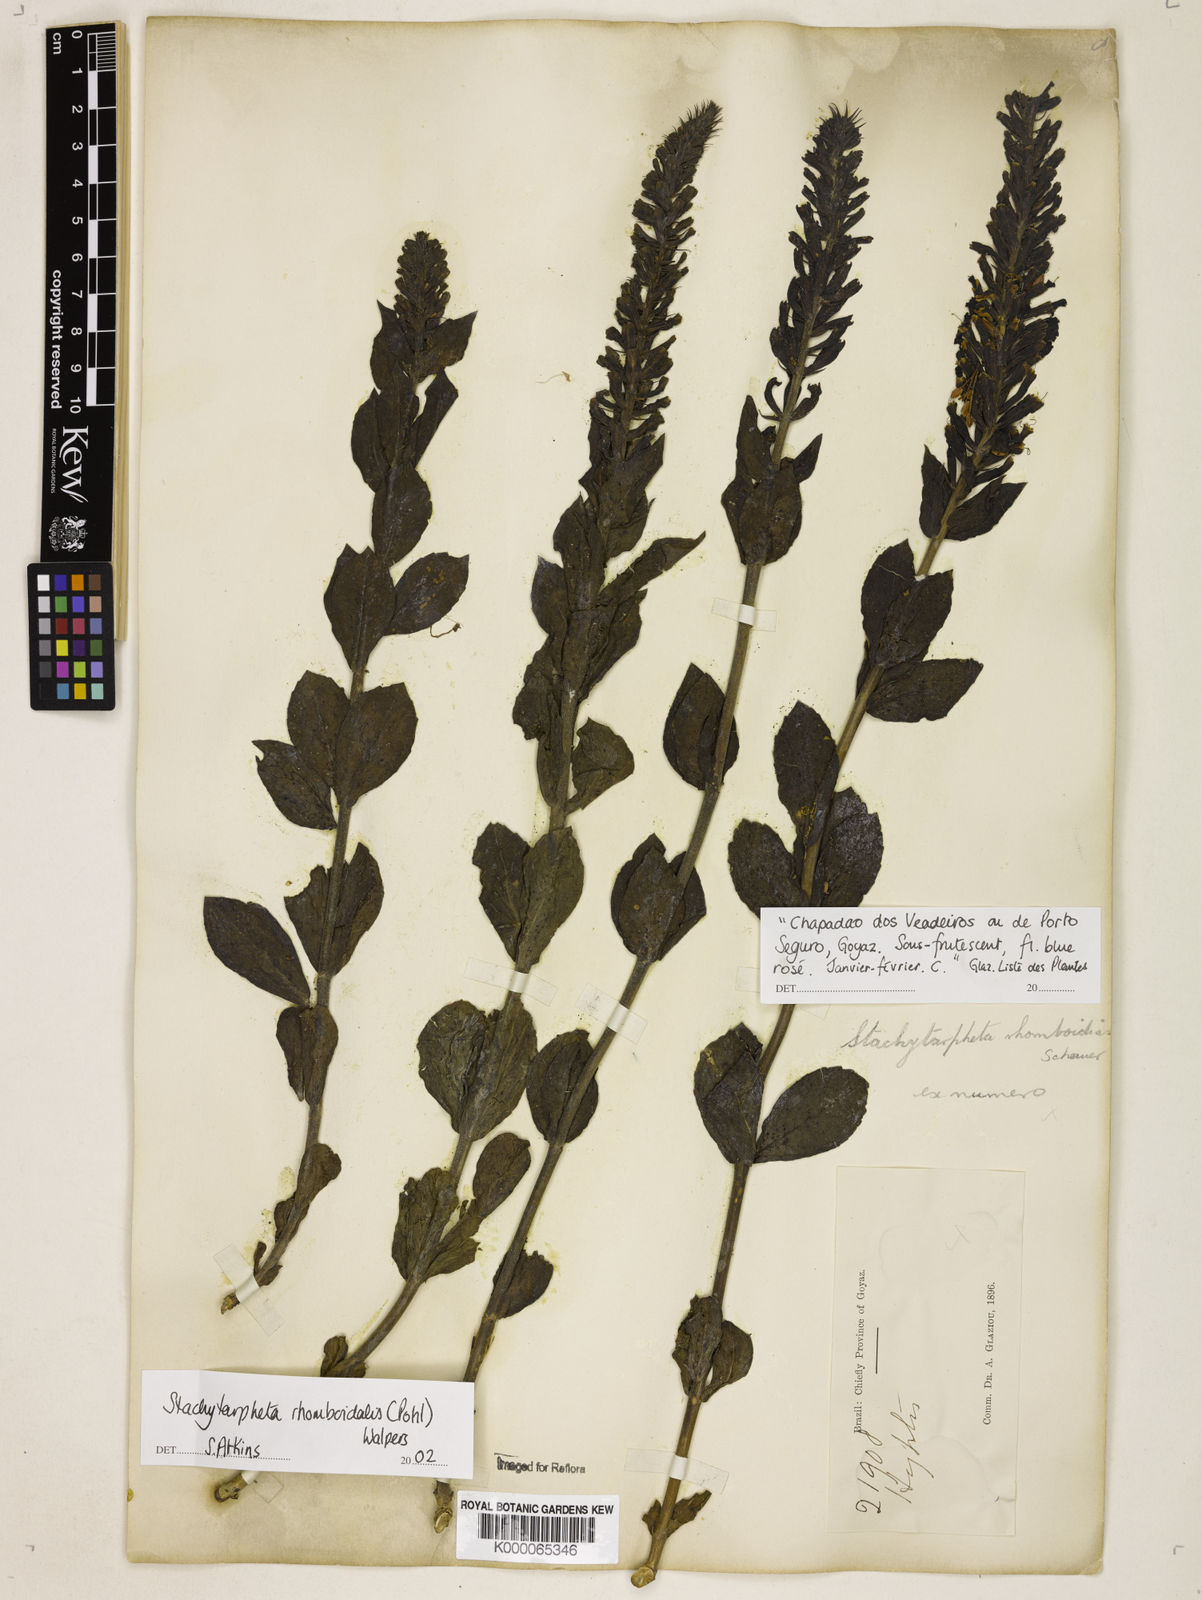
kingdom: Plantae
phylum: Tracheophyta
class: Magnoliopsida
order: Lamiales
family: Verbenaceae
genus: Stachytarpheta
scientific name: Stachytarpheta rhomboidalis
